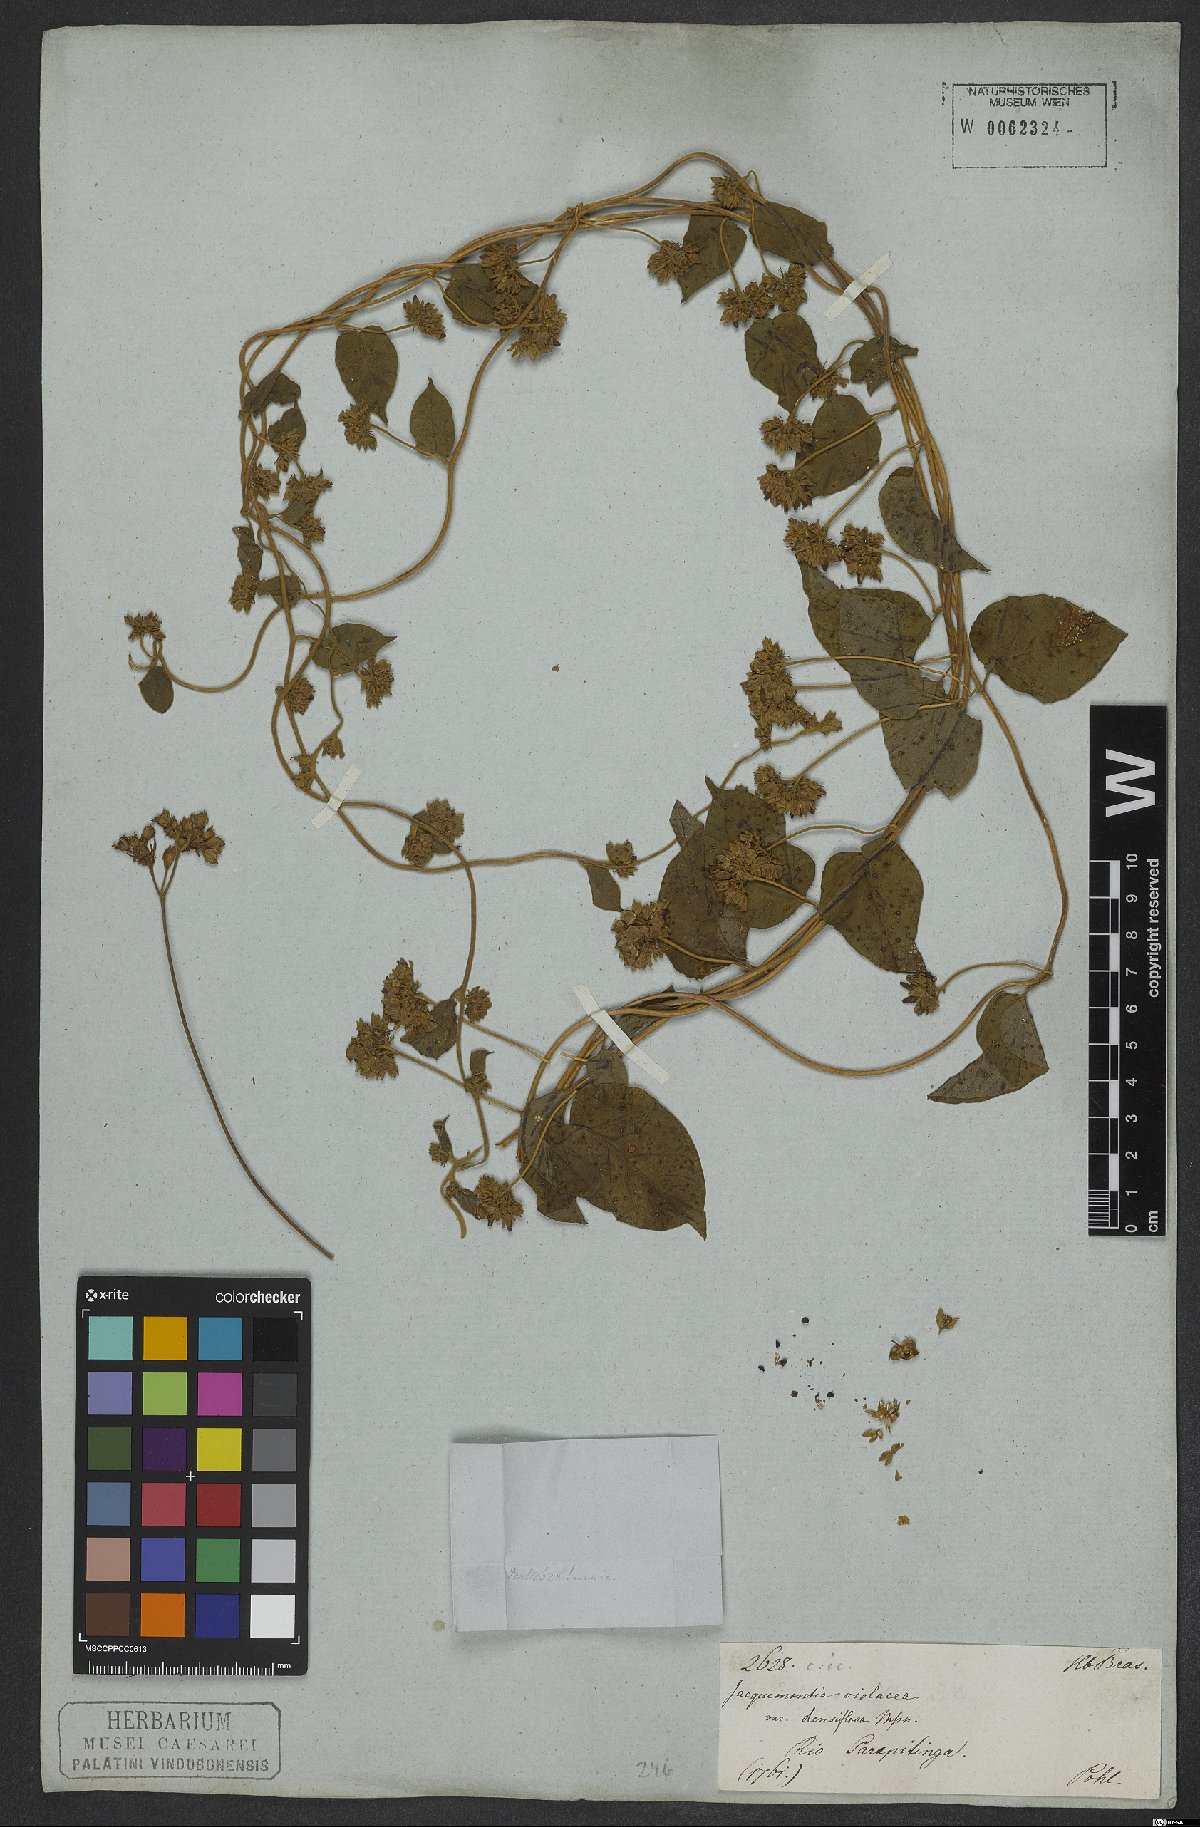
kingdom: Plantae
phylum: Tracheophyta
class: Magnoliopsida
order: Solanales
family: Convolvulaceae
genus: Jacquemontia
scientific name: Jacquemontia densiflora
